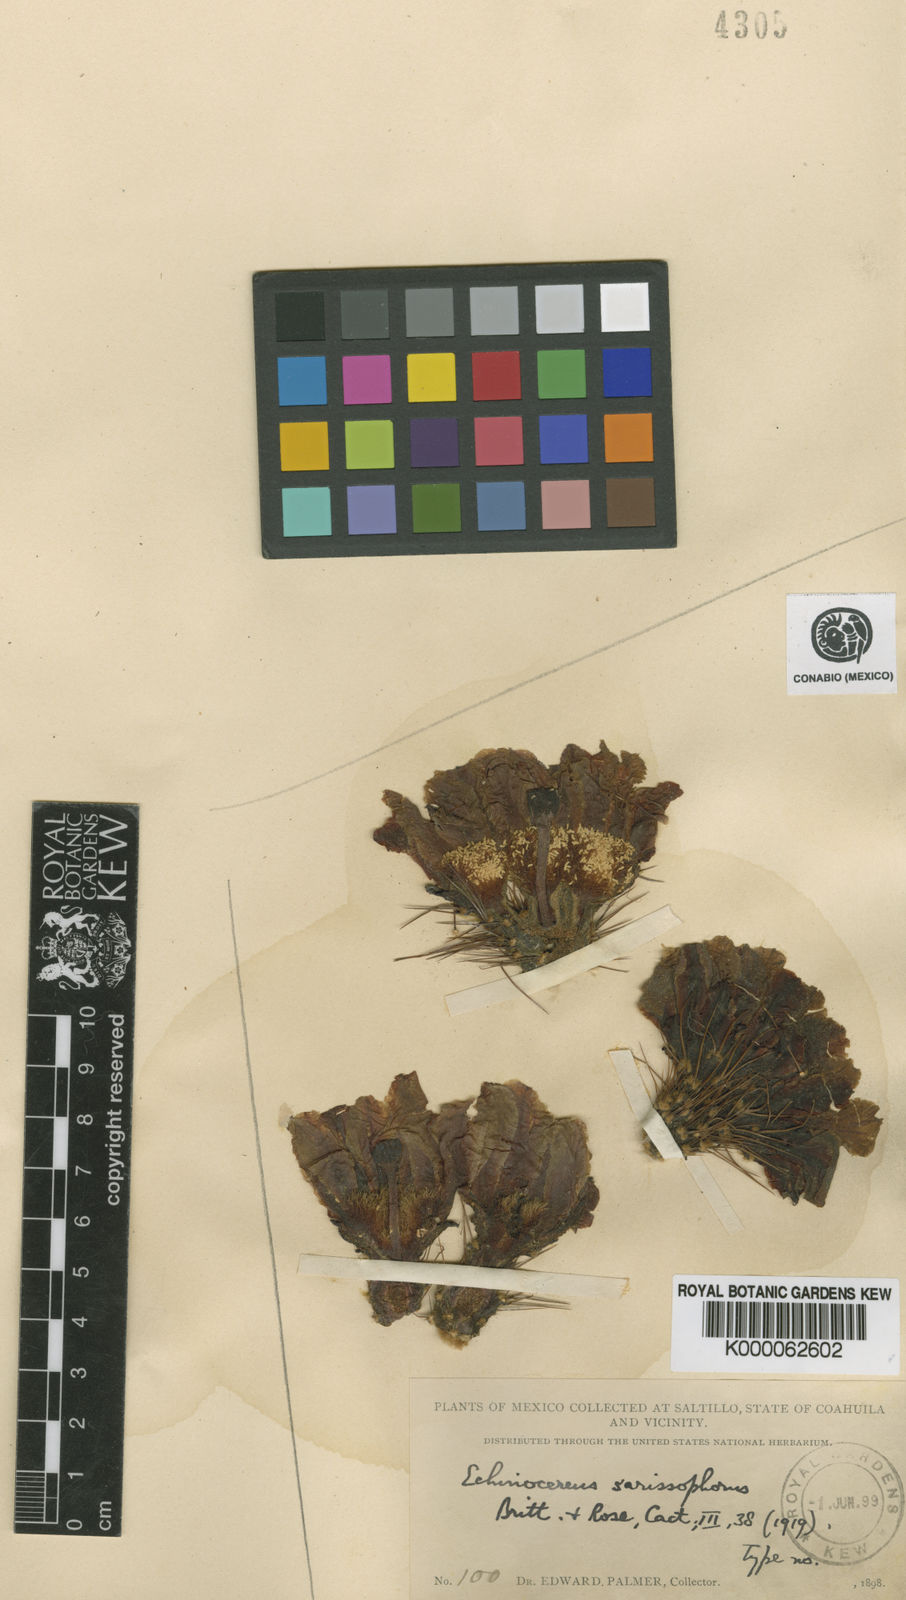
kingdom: Plantae
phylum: Tracheophyta
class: Magnoliopsida
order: Caryophyllales
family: Cactaceae
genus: Echinocereus
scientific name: Echinocereus enneacanthus
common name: Pitaya
